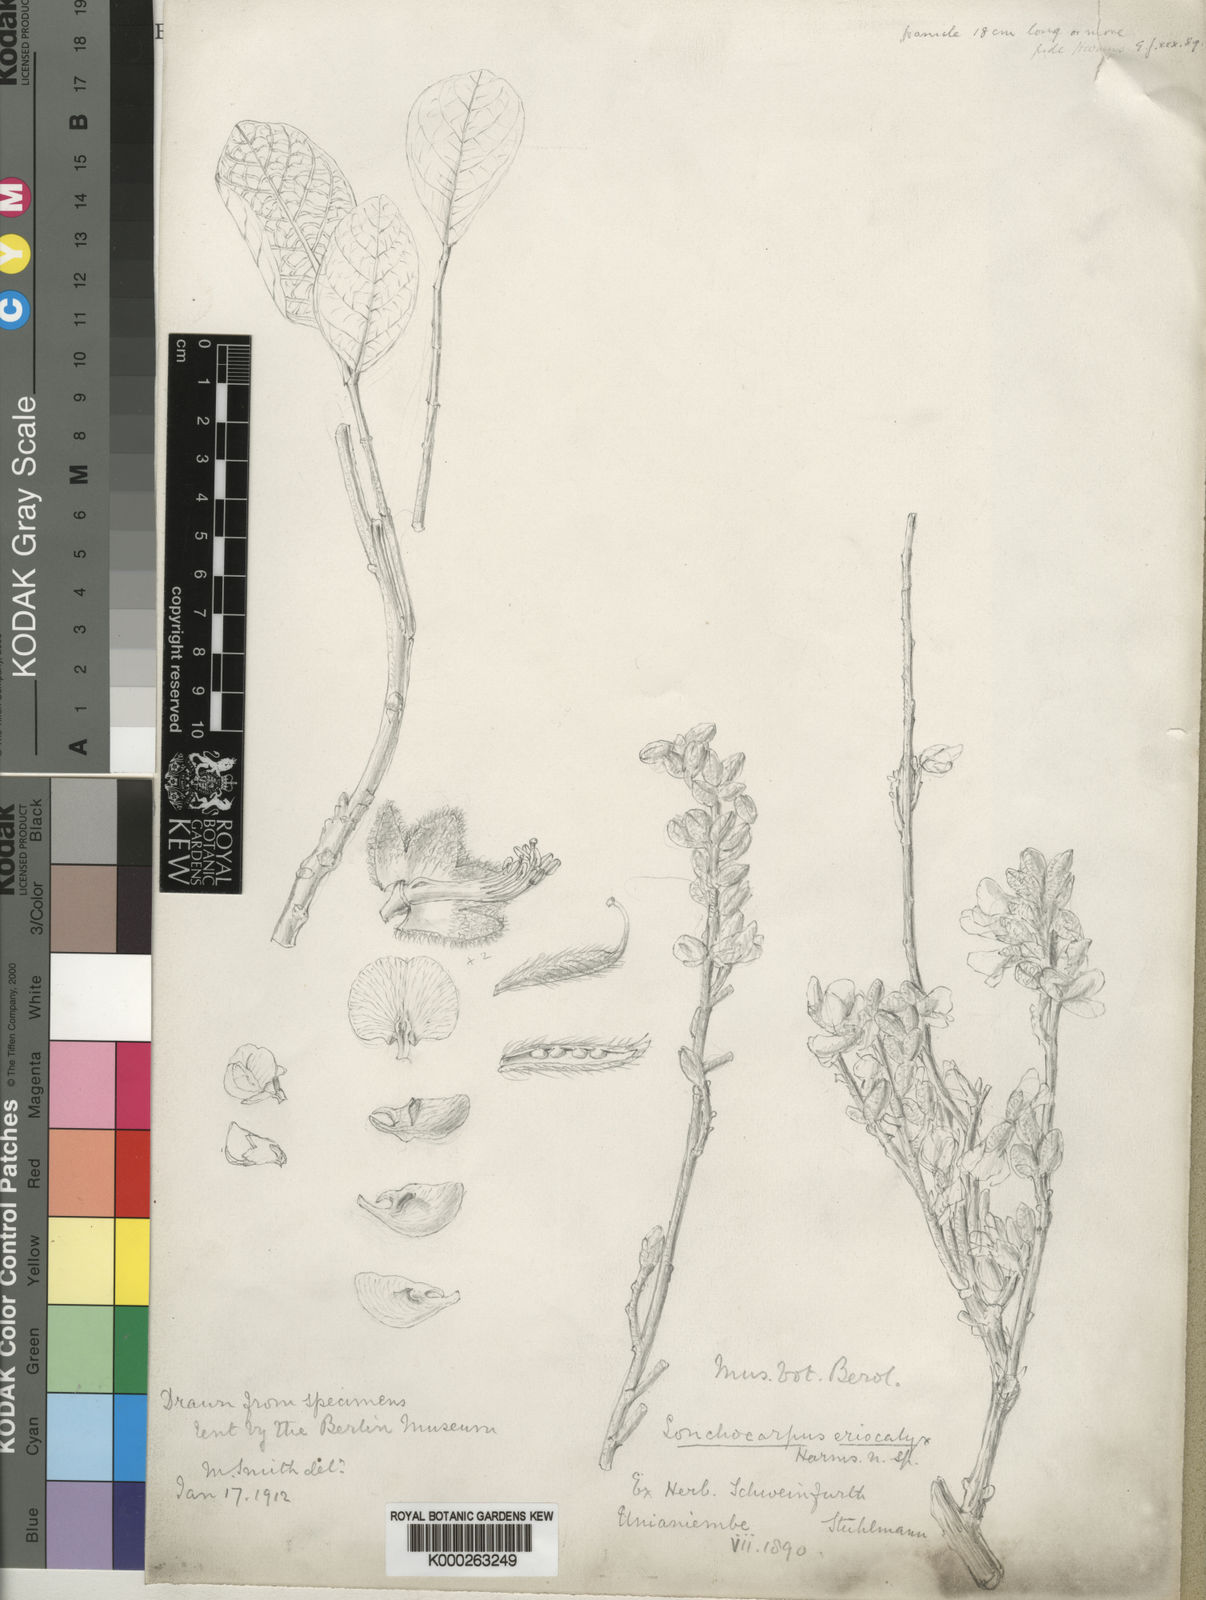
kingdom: Plantae
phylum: Tracheophyta
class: Magnoliopsida
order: Fabales
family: Fabaceae
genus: Philenoptera
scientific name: Philenoptera eriocalyx
